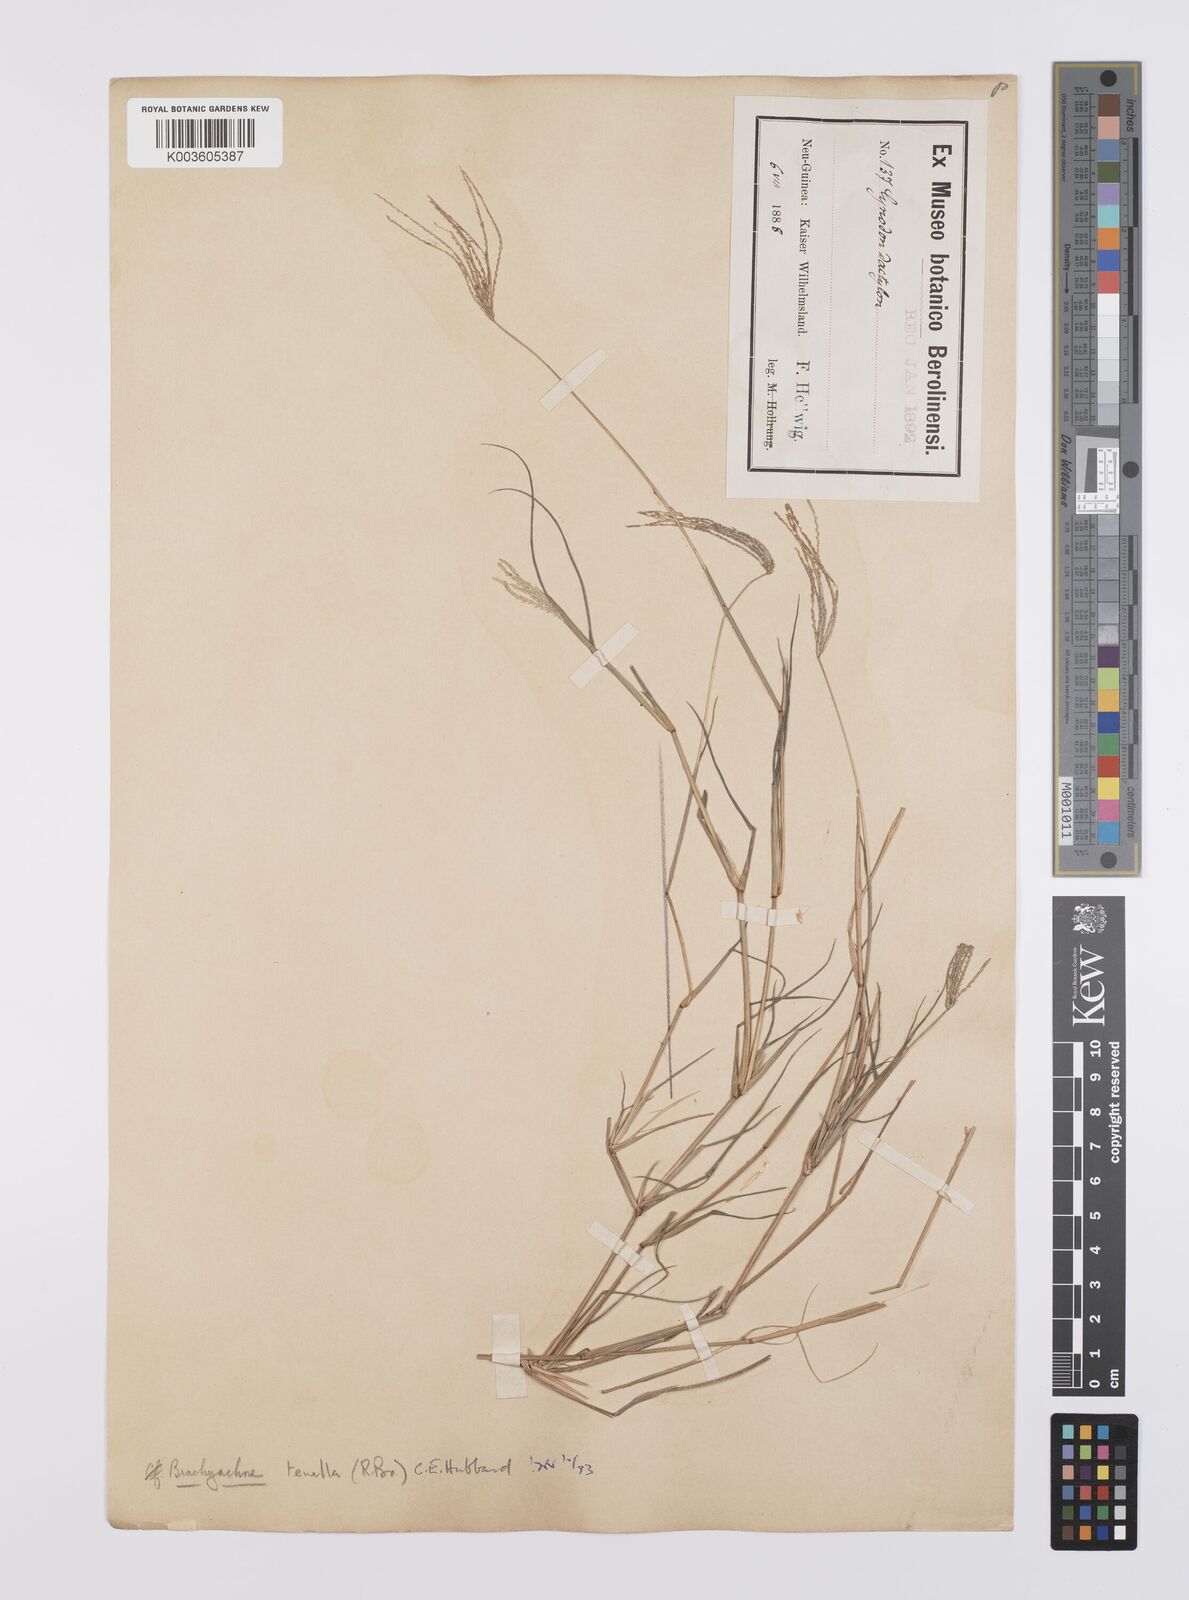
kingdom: Plantae
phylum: Tracheophyta
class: Liliopsida
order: Poales
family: Poaceae
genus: Cynodon
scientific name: Cynodon tenellus
